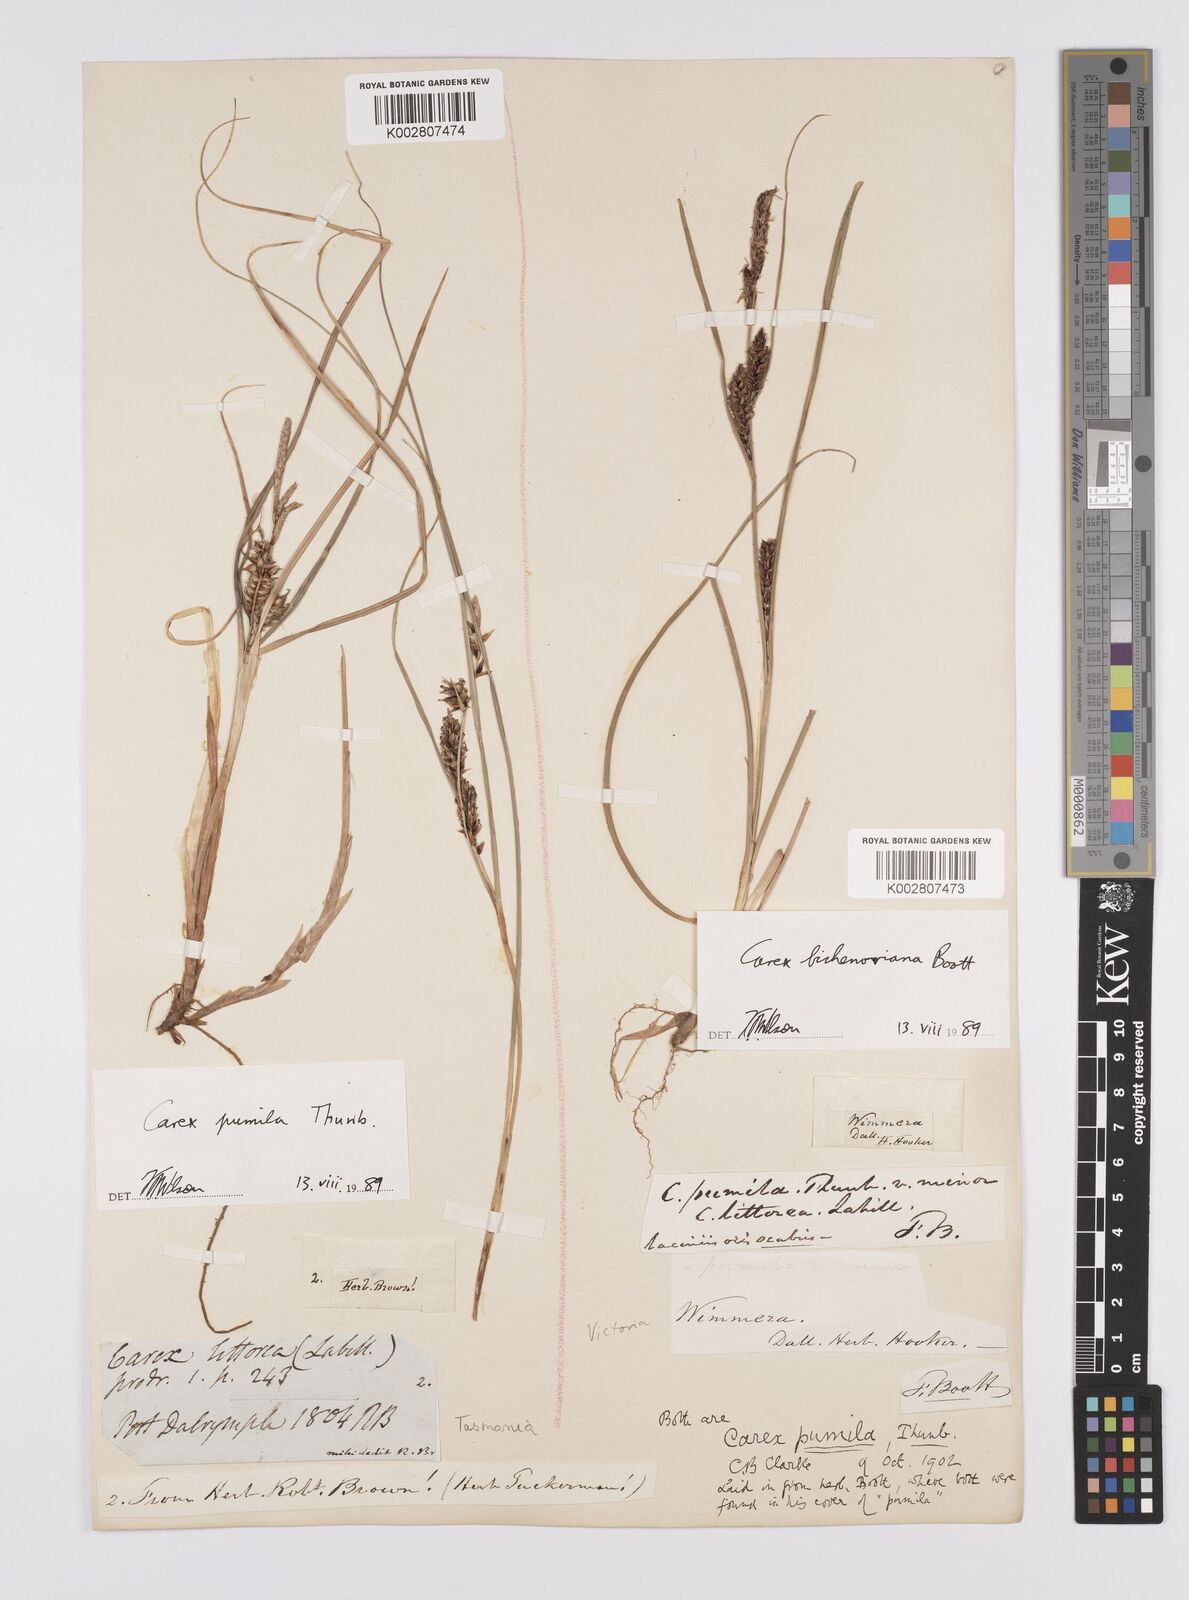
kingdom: Plantae
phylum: Tracheophyta
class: Liliopsida
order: Poales
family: Cyperaceae
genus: Carex
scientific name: Carex bichenoviana
